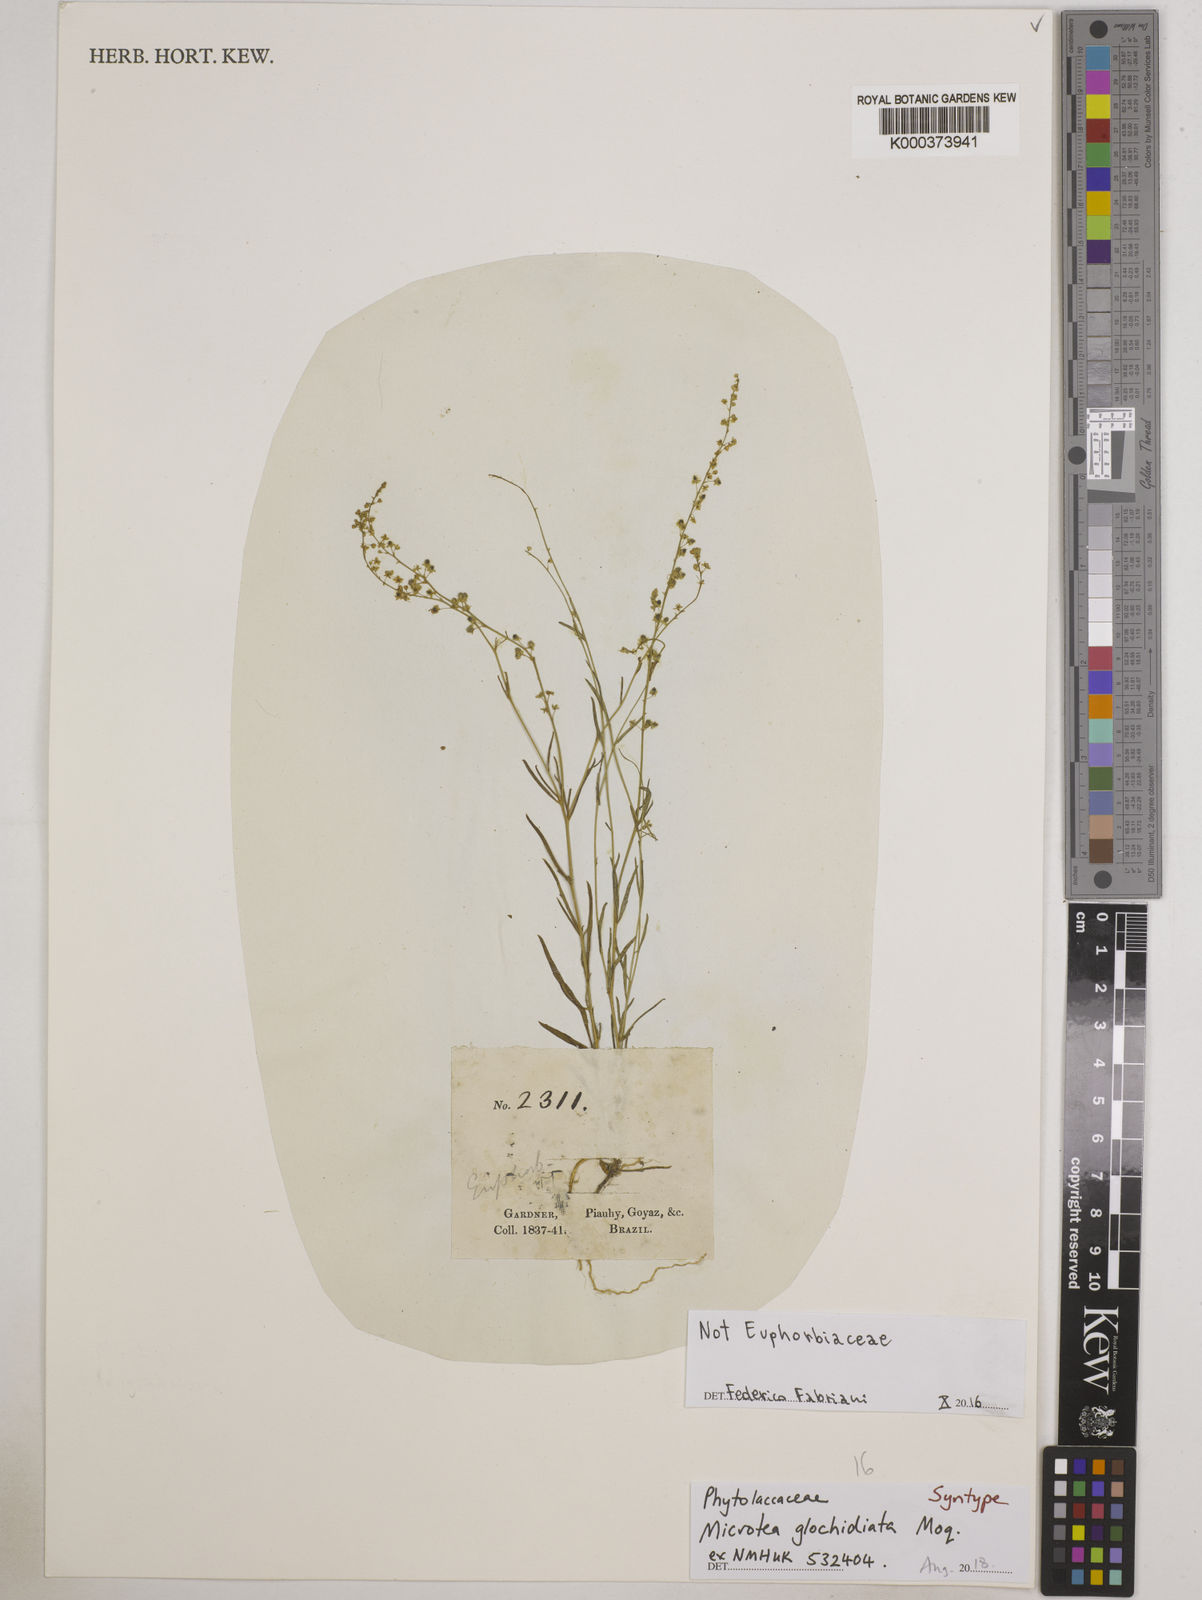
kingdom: Plantae
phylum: Tracheophyta
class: Magnoliopsida
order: Caryophyllales
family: Microteaceae
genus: Microtea
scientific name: Microtea glochidiata
